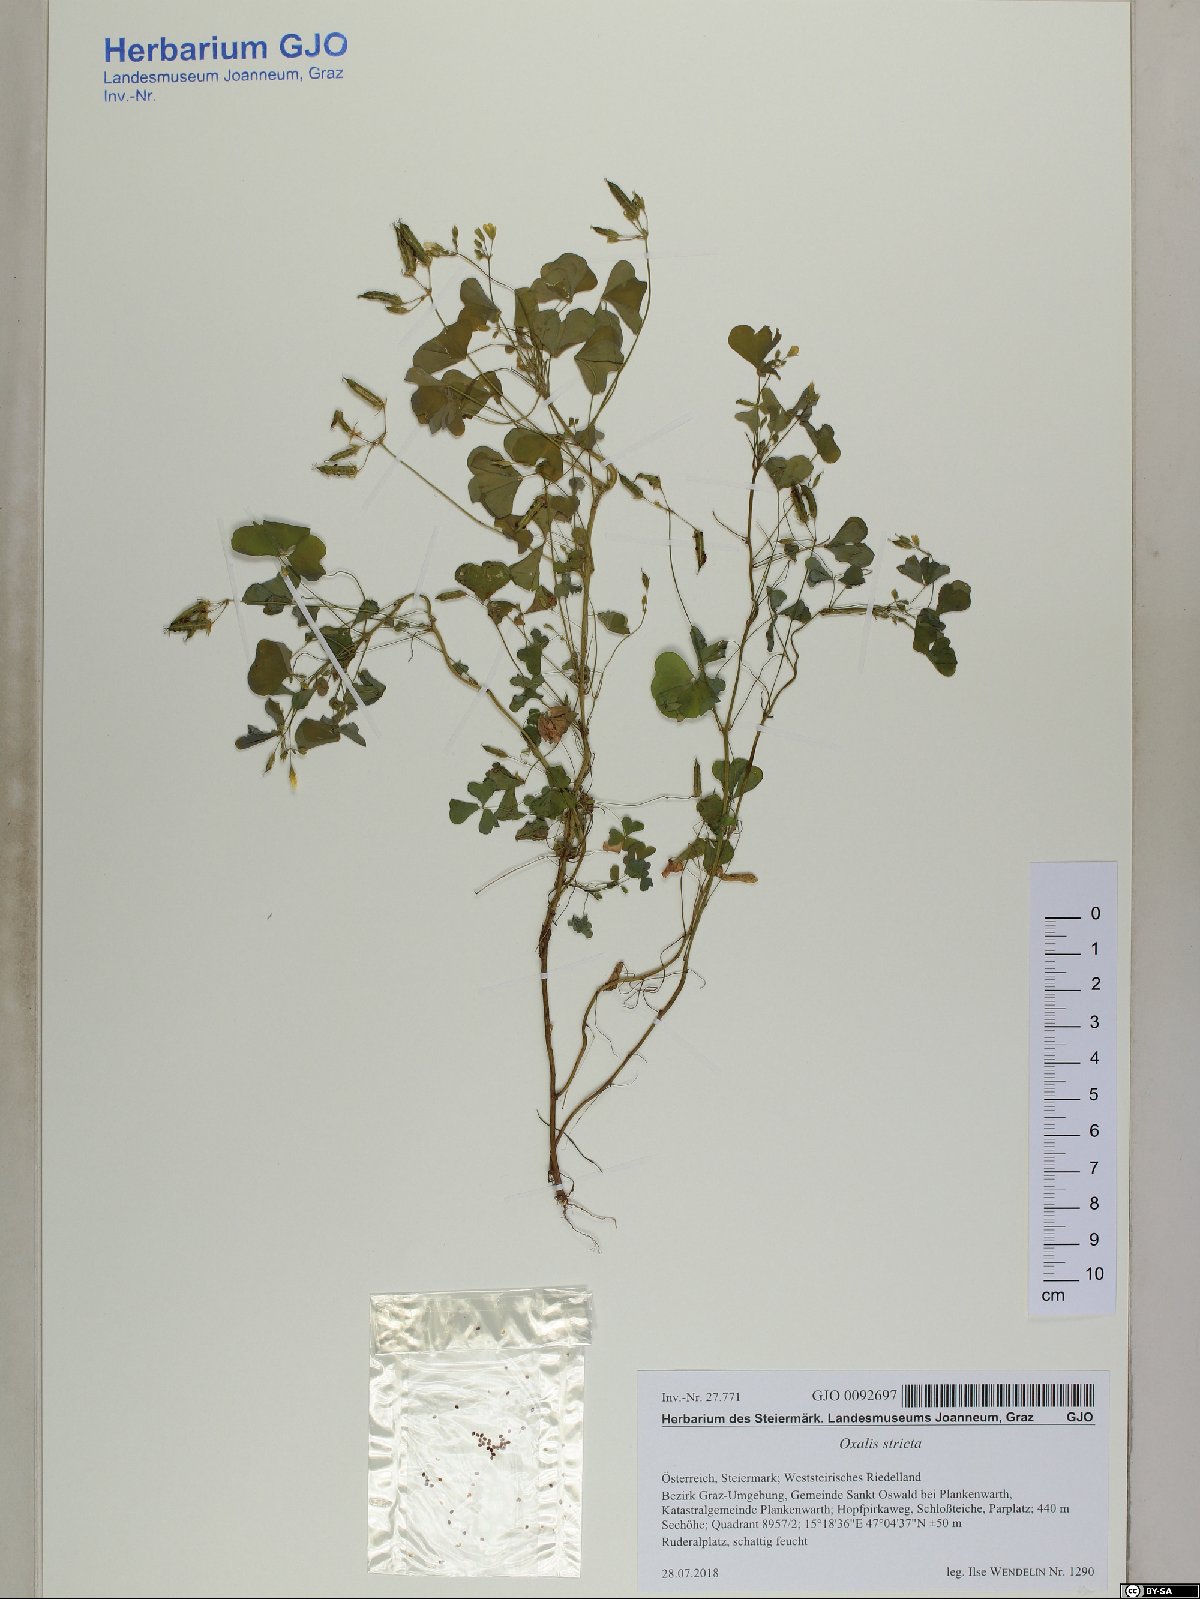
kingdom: Plantae
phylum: Tracheophyta
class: Magnoliopsida
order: Oxalidales
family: Oxalidaceae
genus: Oxalis
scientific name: Oxalis stricta
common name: Upright yellow-sorrel
